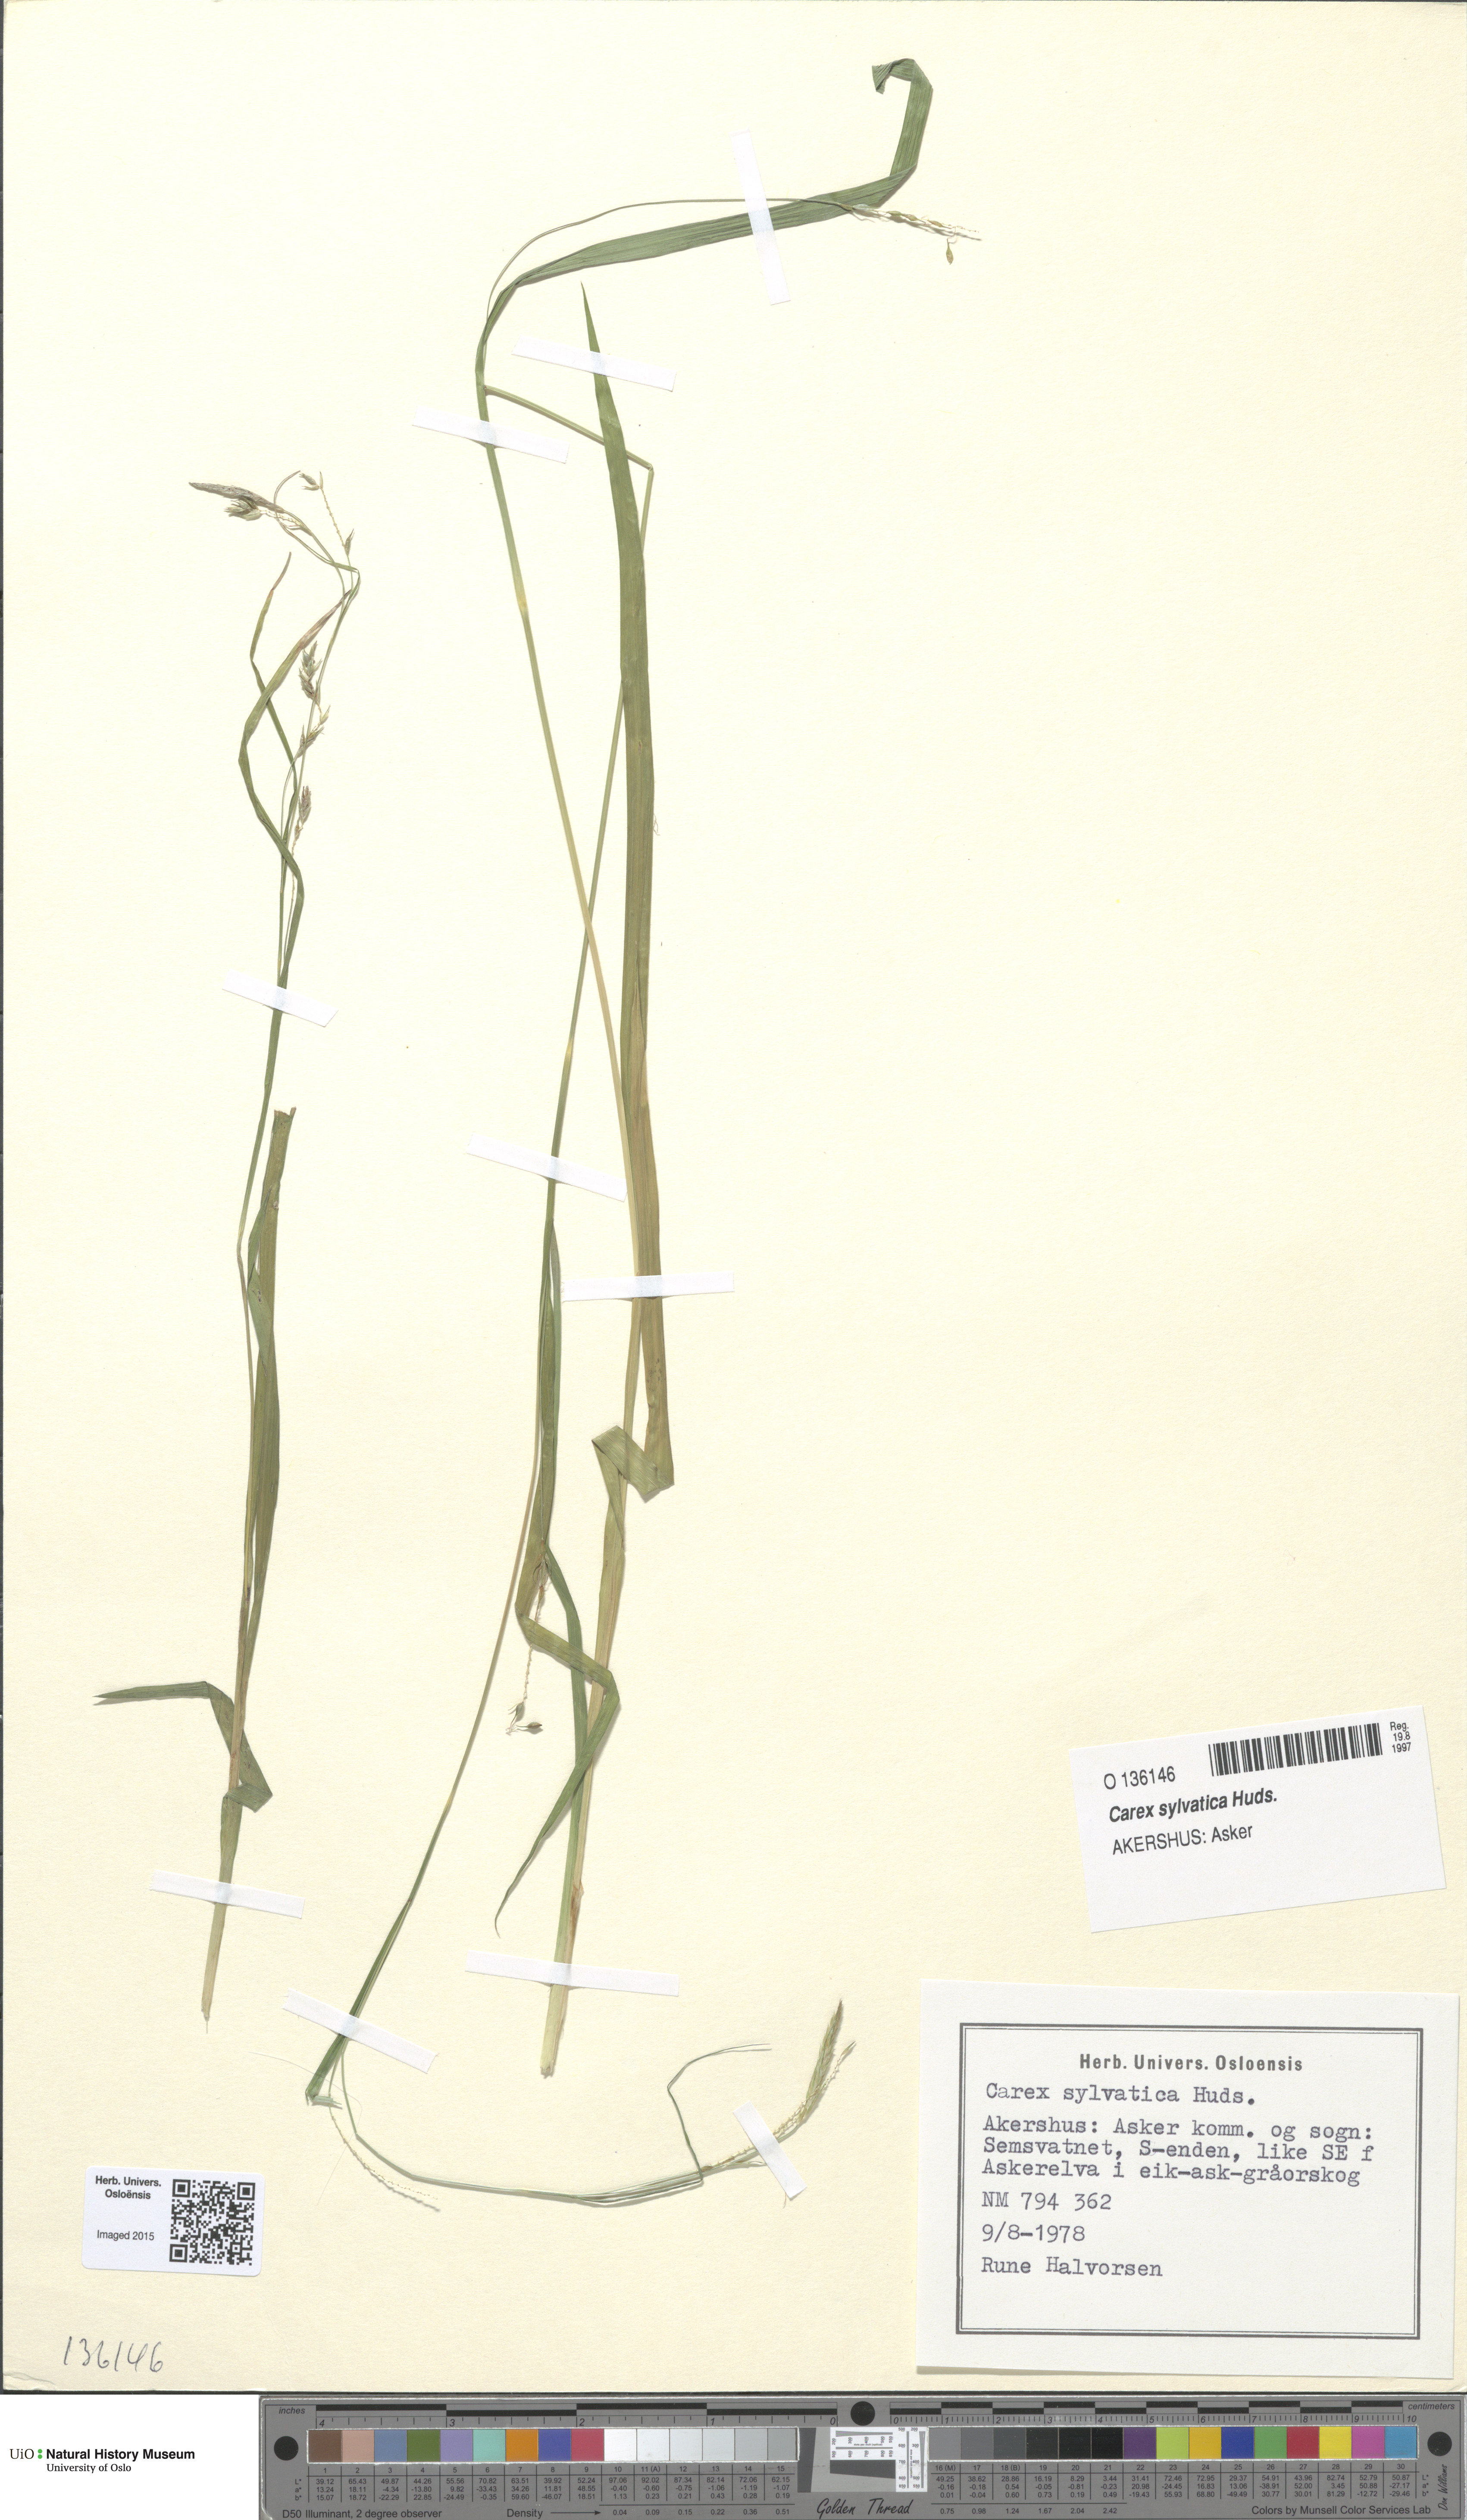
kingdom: Plantae
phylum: Tracheophyta
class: Liliopsida
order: Poales
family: Cyperaceae
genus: Carex
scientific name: Carex sylvatica
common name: Wood-sedge
